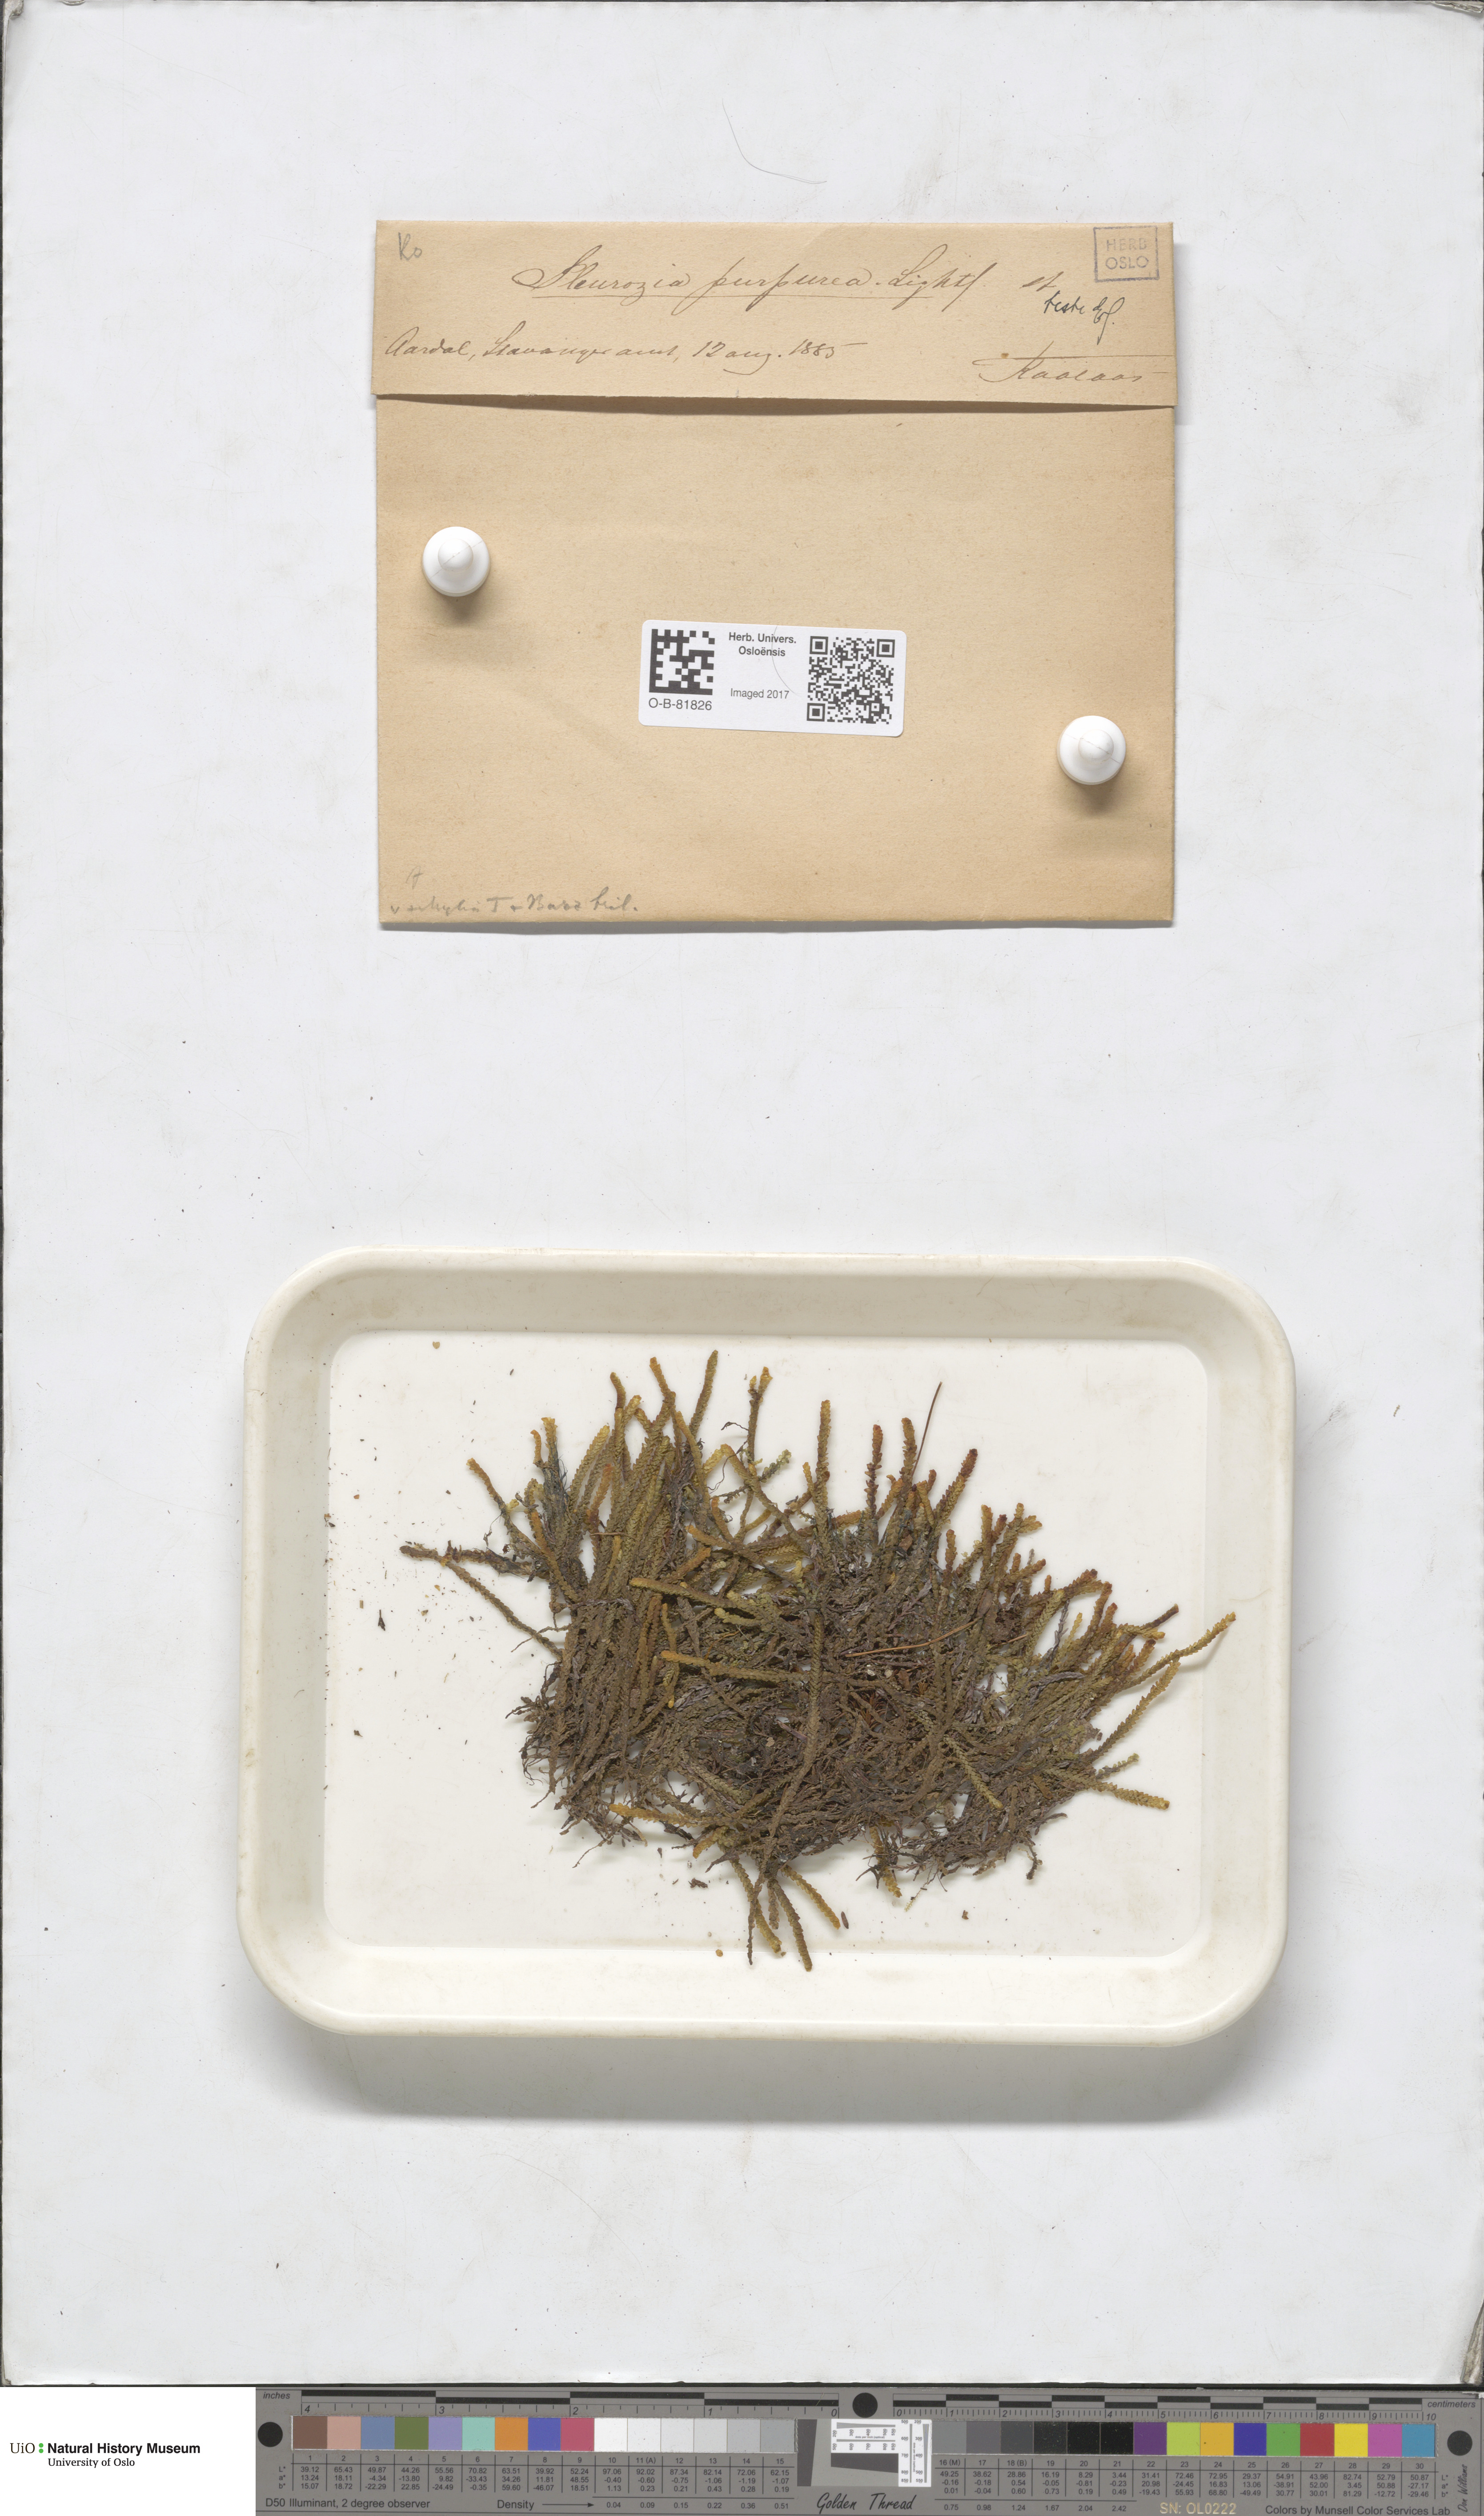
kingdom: Plantae
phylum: Marchantiophyta
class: Jungermanniopsida
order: Pleuroziales
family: Pleuroziaceae
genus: Pleurozia
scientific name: Pleurozia purpurea
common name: Purple spoonwort
